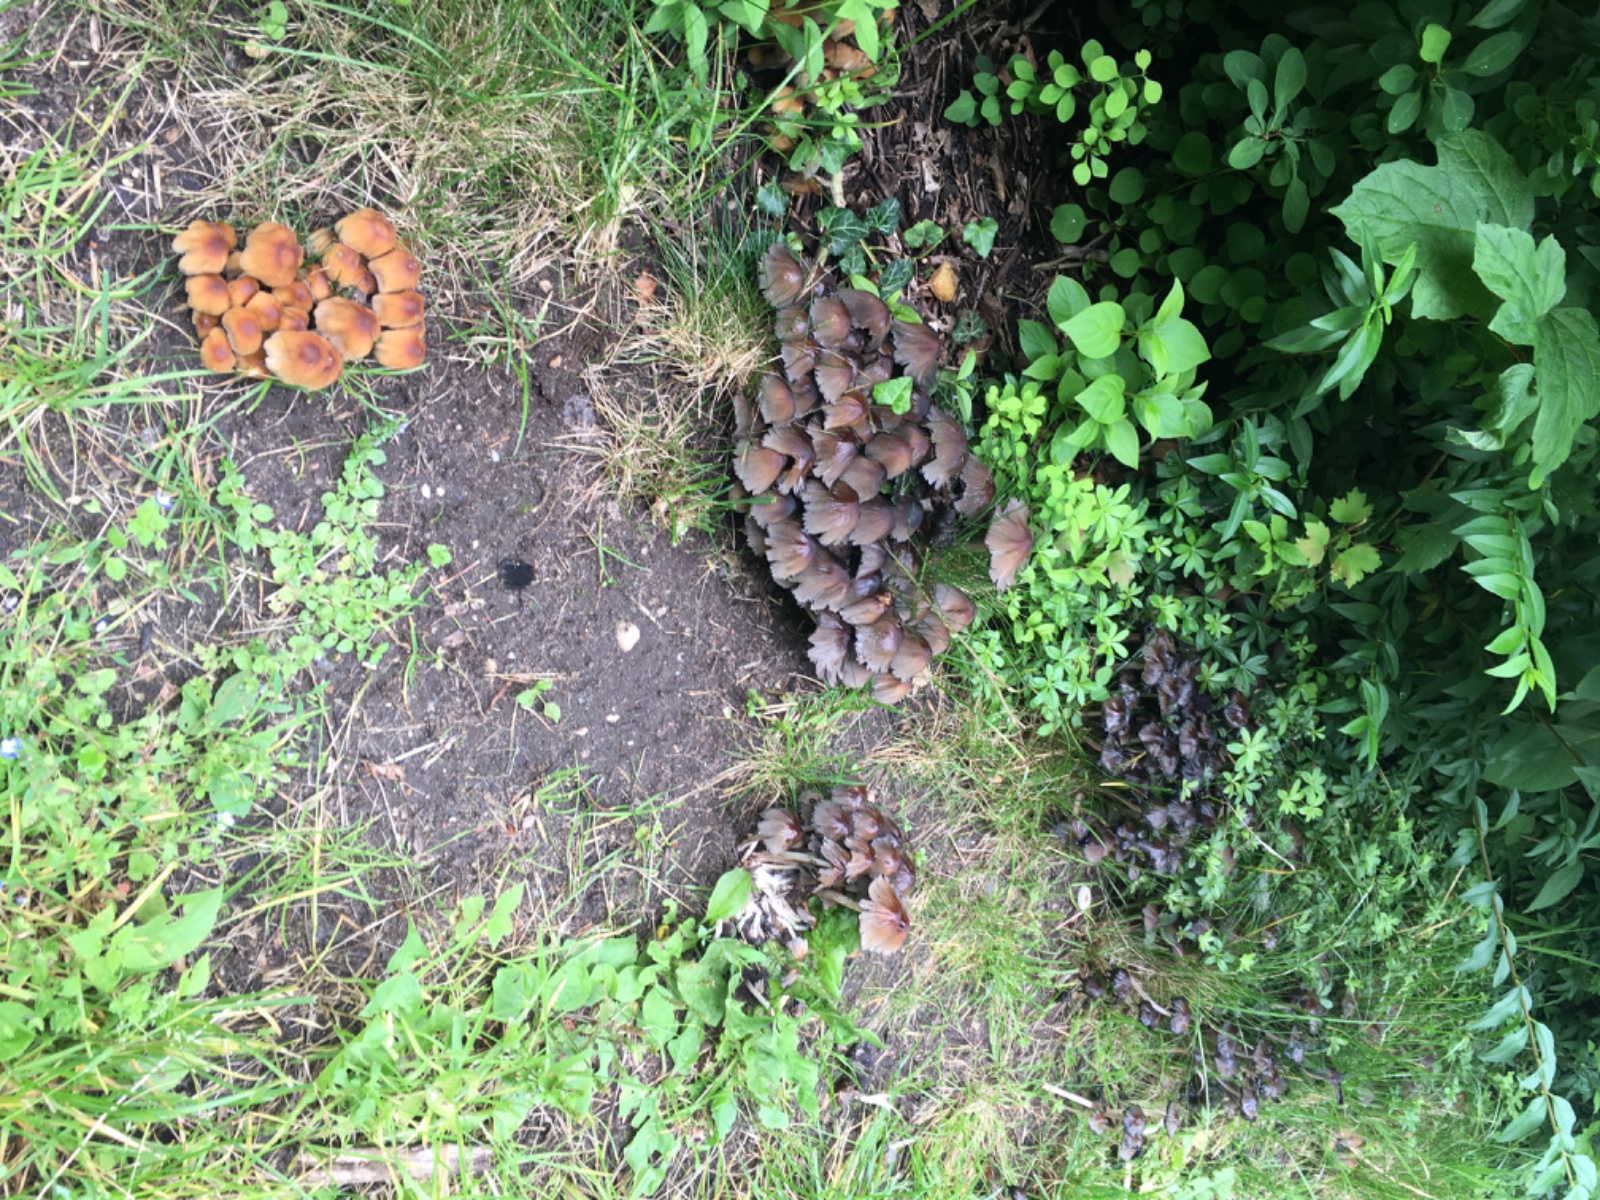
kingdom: Fungi
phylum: Basidiomycota
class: Agaricomycetes
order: Agaricales
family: Psathyrellaceae
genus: Coprinellus
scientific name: Coprinellus micaceus
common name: glimmer-blækhat
